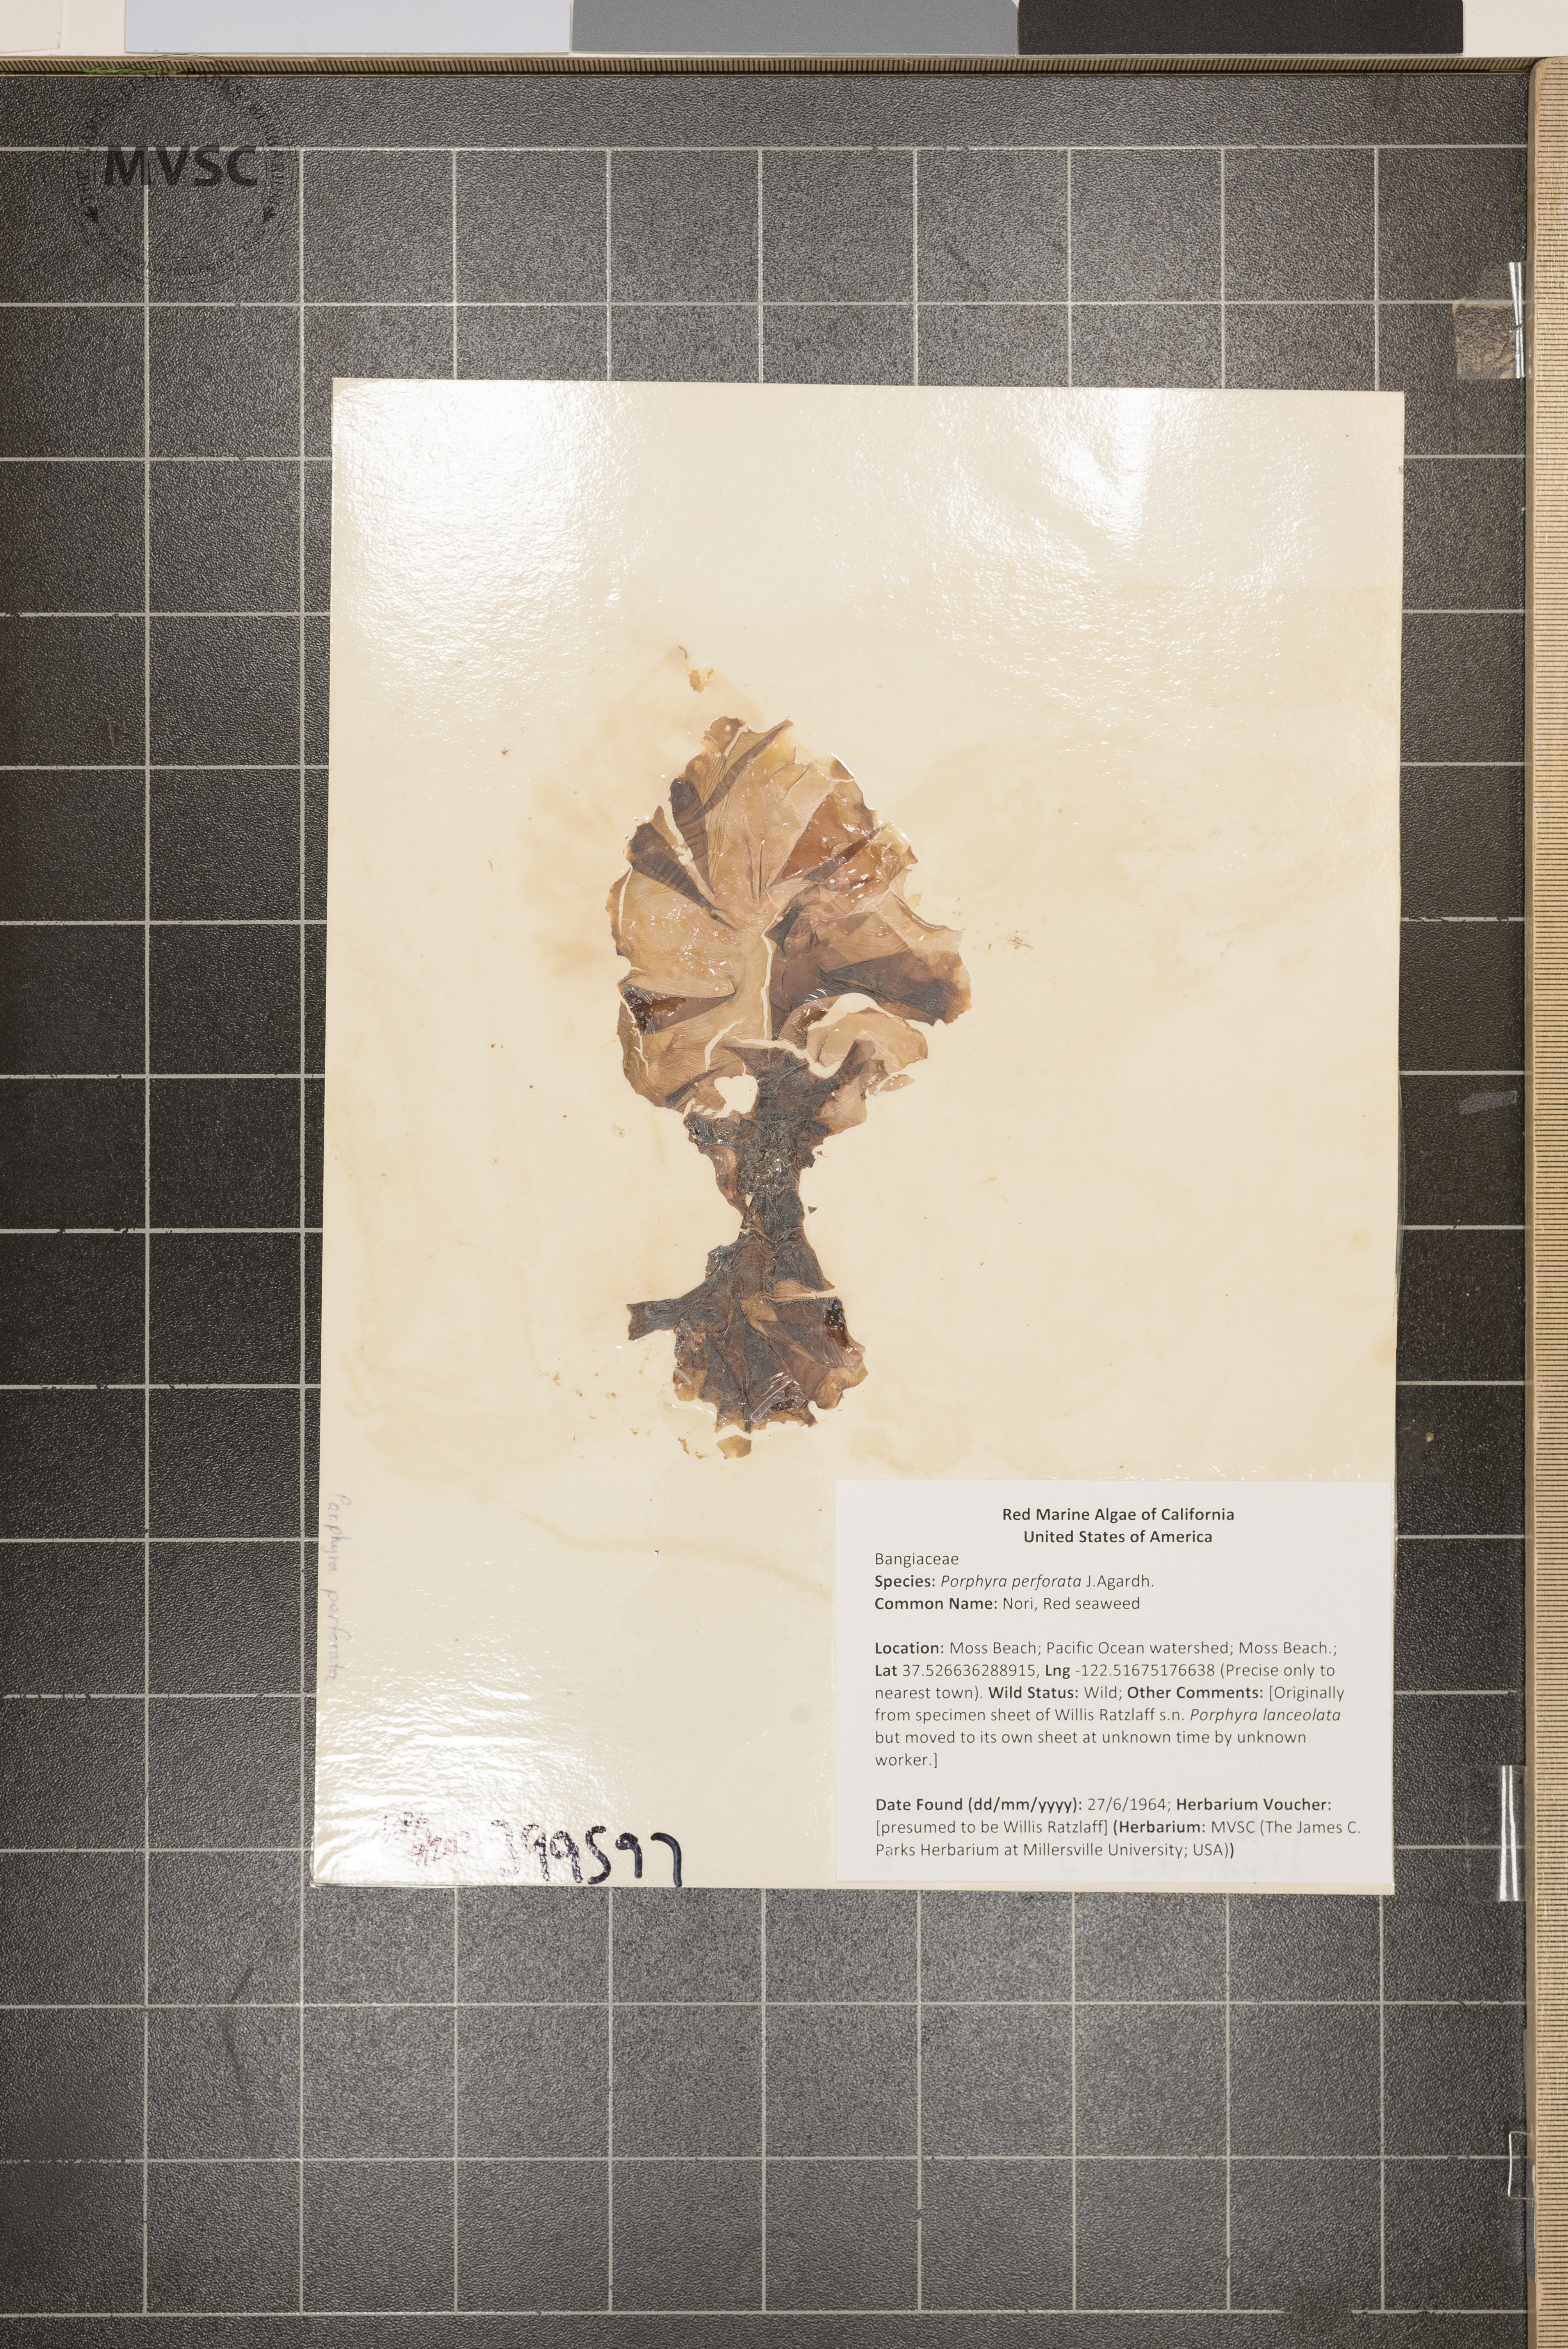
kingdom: Plantae
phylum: Rhodophyta
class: Bangiophyceae
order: Bangiales
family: Bangiaceae
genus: Neoporphyra
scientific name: Neoporphyra perforata
